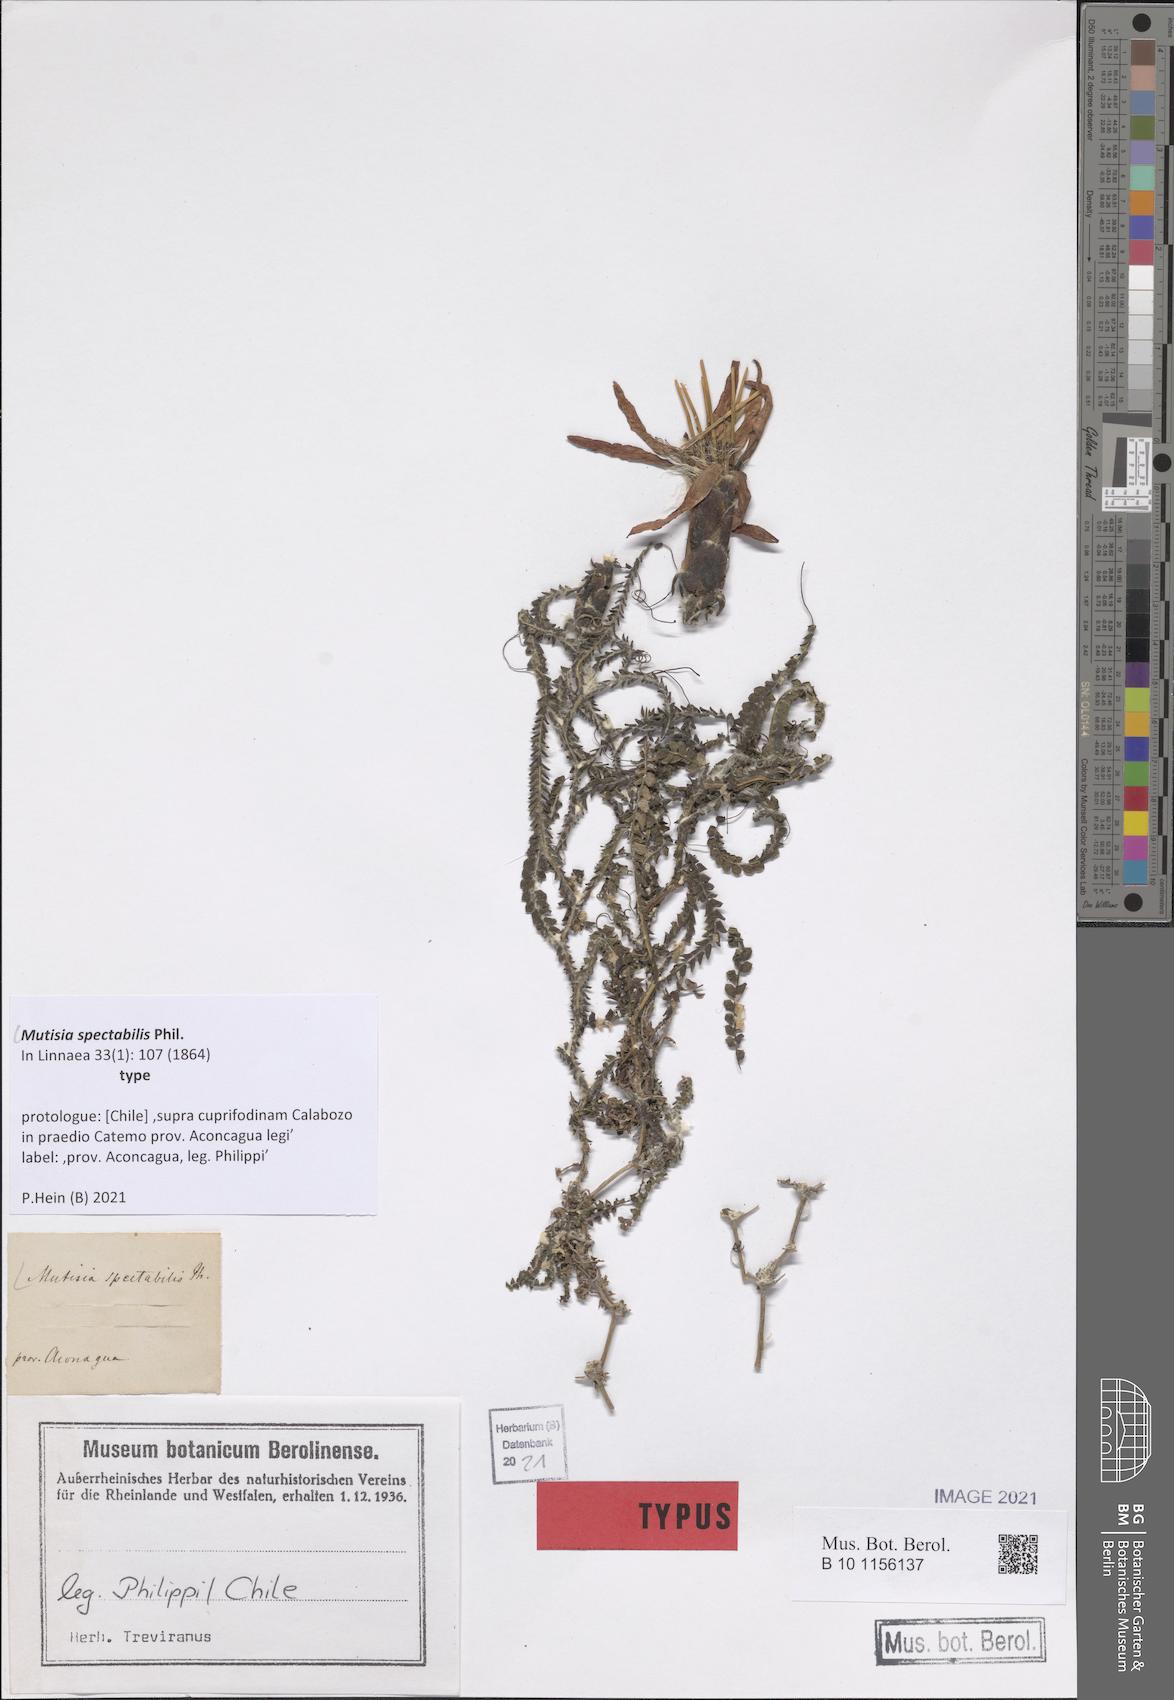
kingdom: Plantae
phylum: Tracheophyta
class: Magnoliopsida
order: Asterales
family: Asteraceae
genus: Mutisia
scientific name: Mutisia spectabilis
